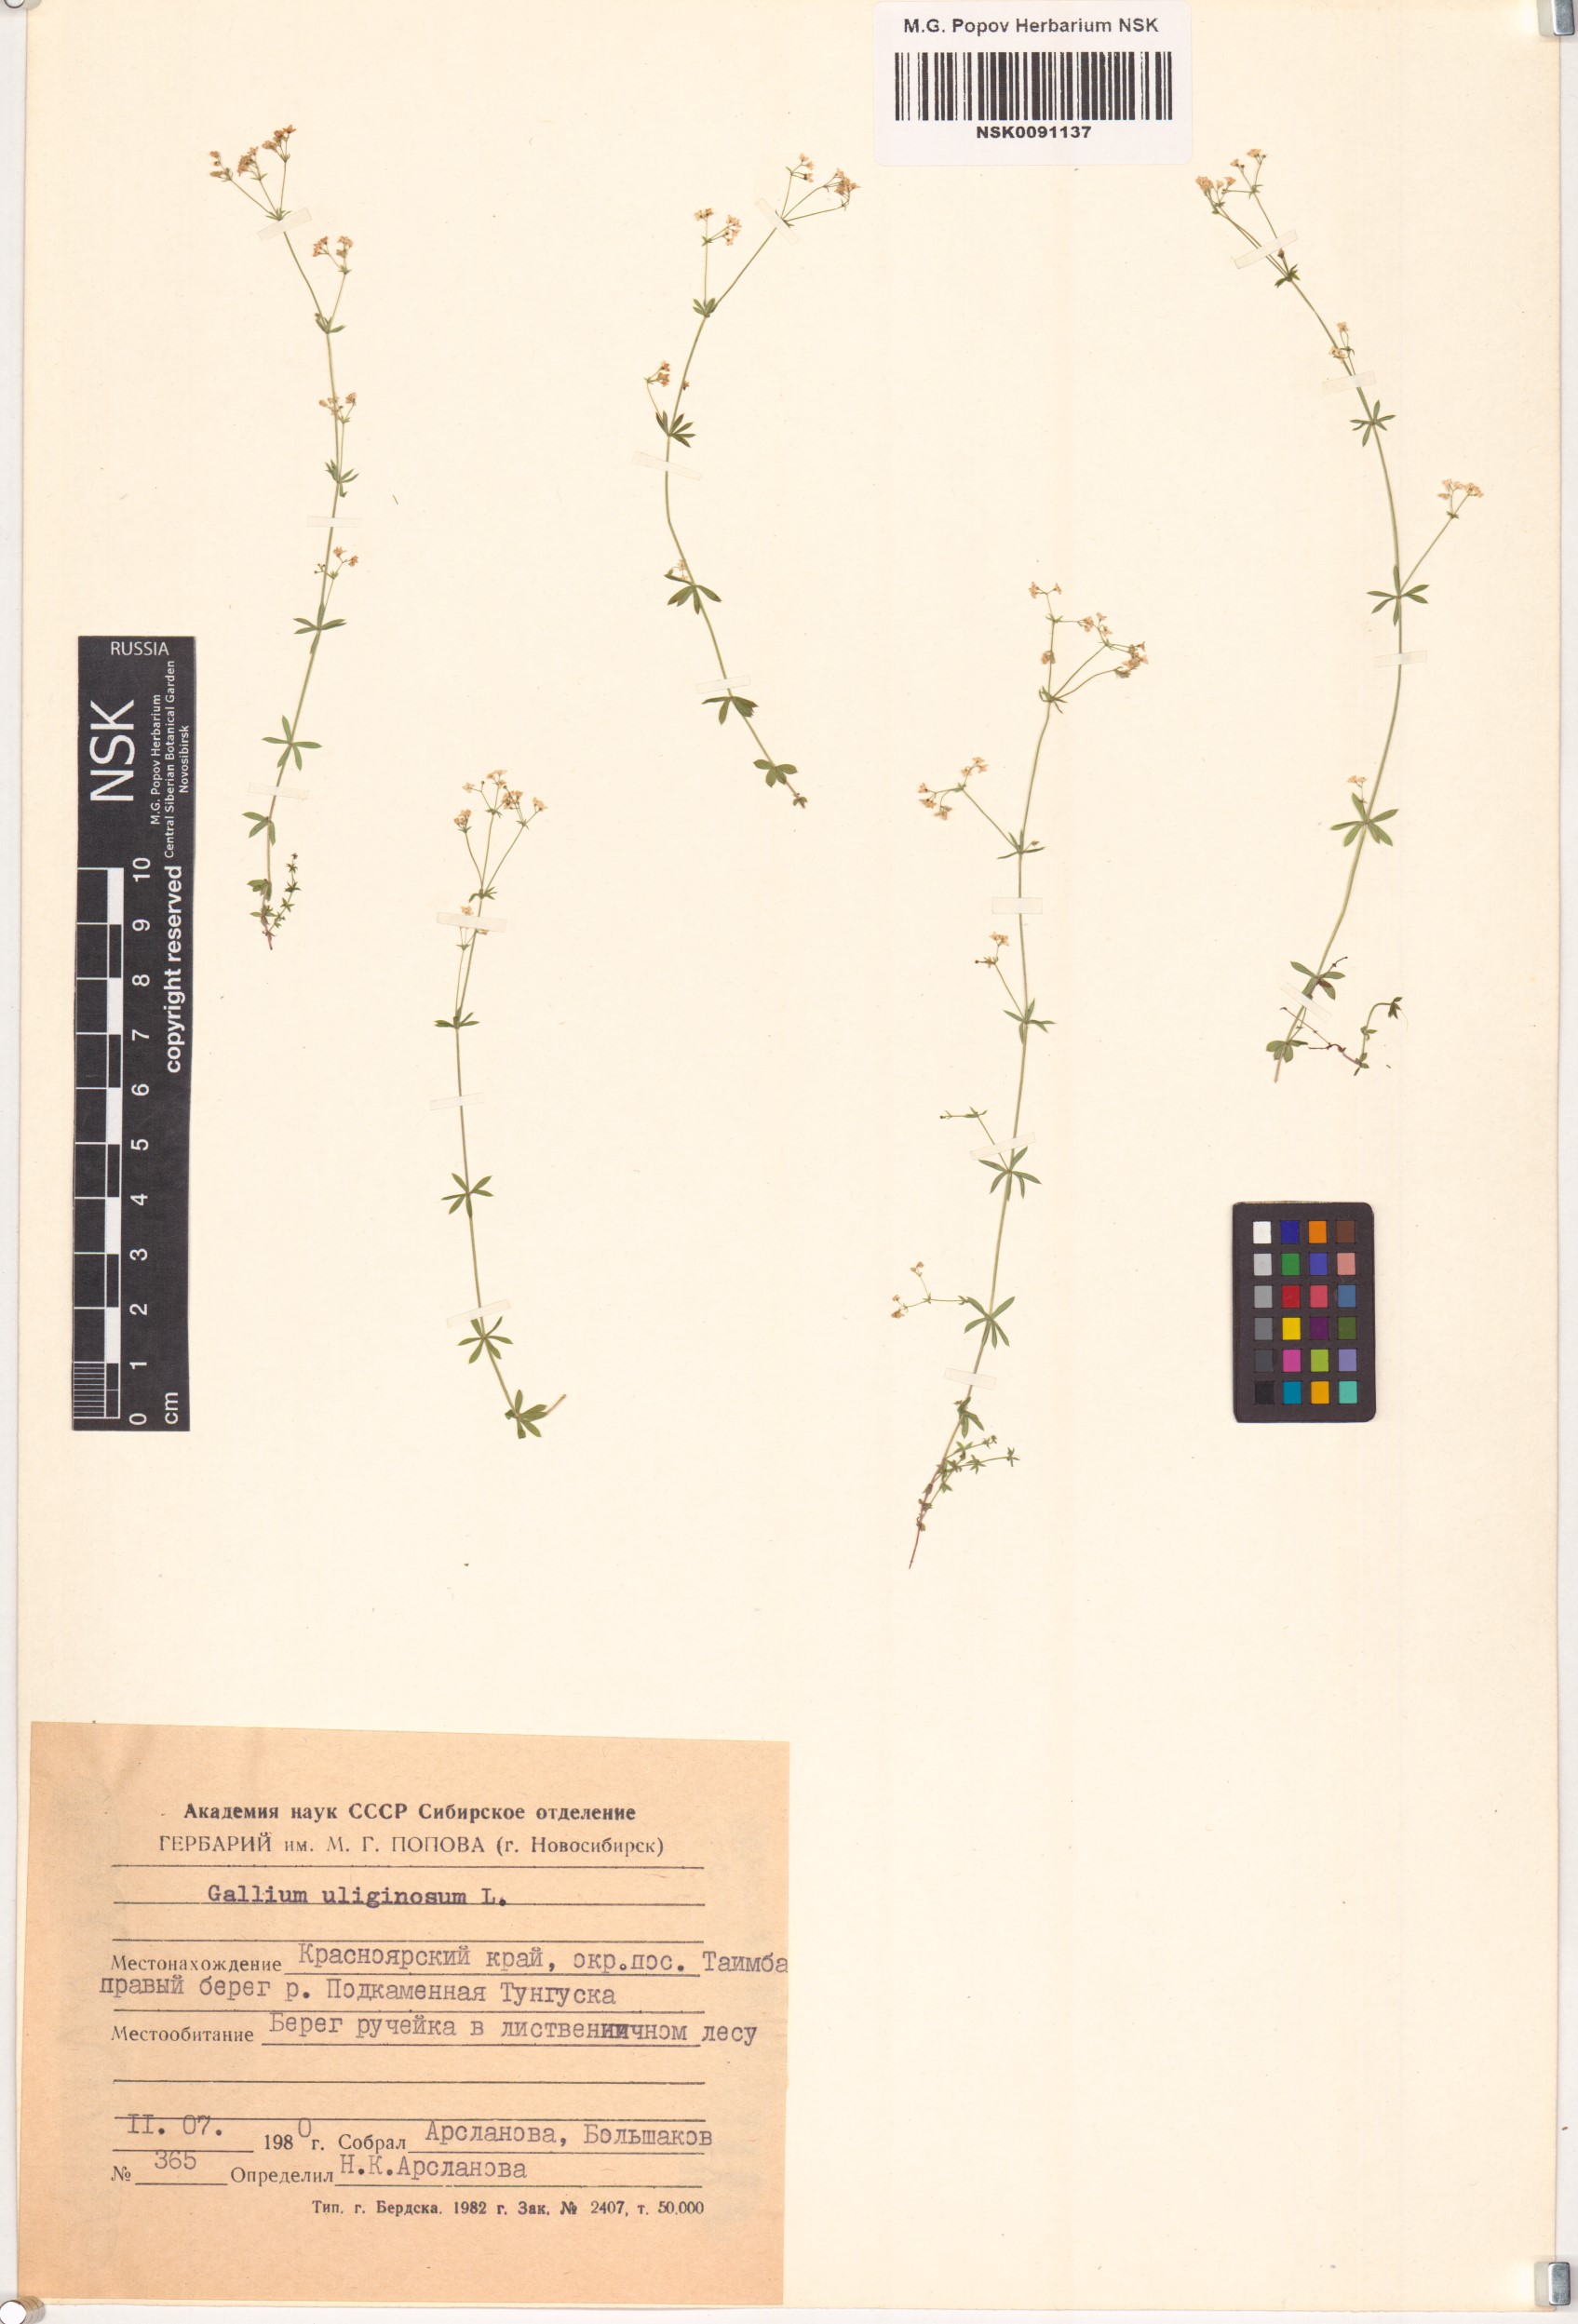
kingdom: Plantae
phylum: Tracheophyta
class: Magnoliopsida
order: Gentianales
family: Rubiaceae
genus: Galium
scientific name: Galium uliginosum
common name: Fen bedstraw
